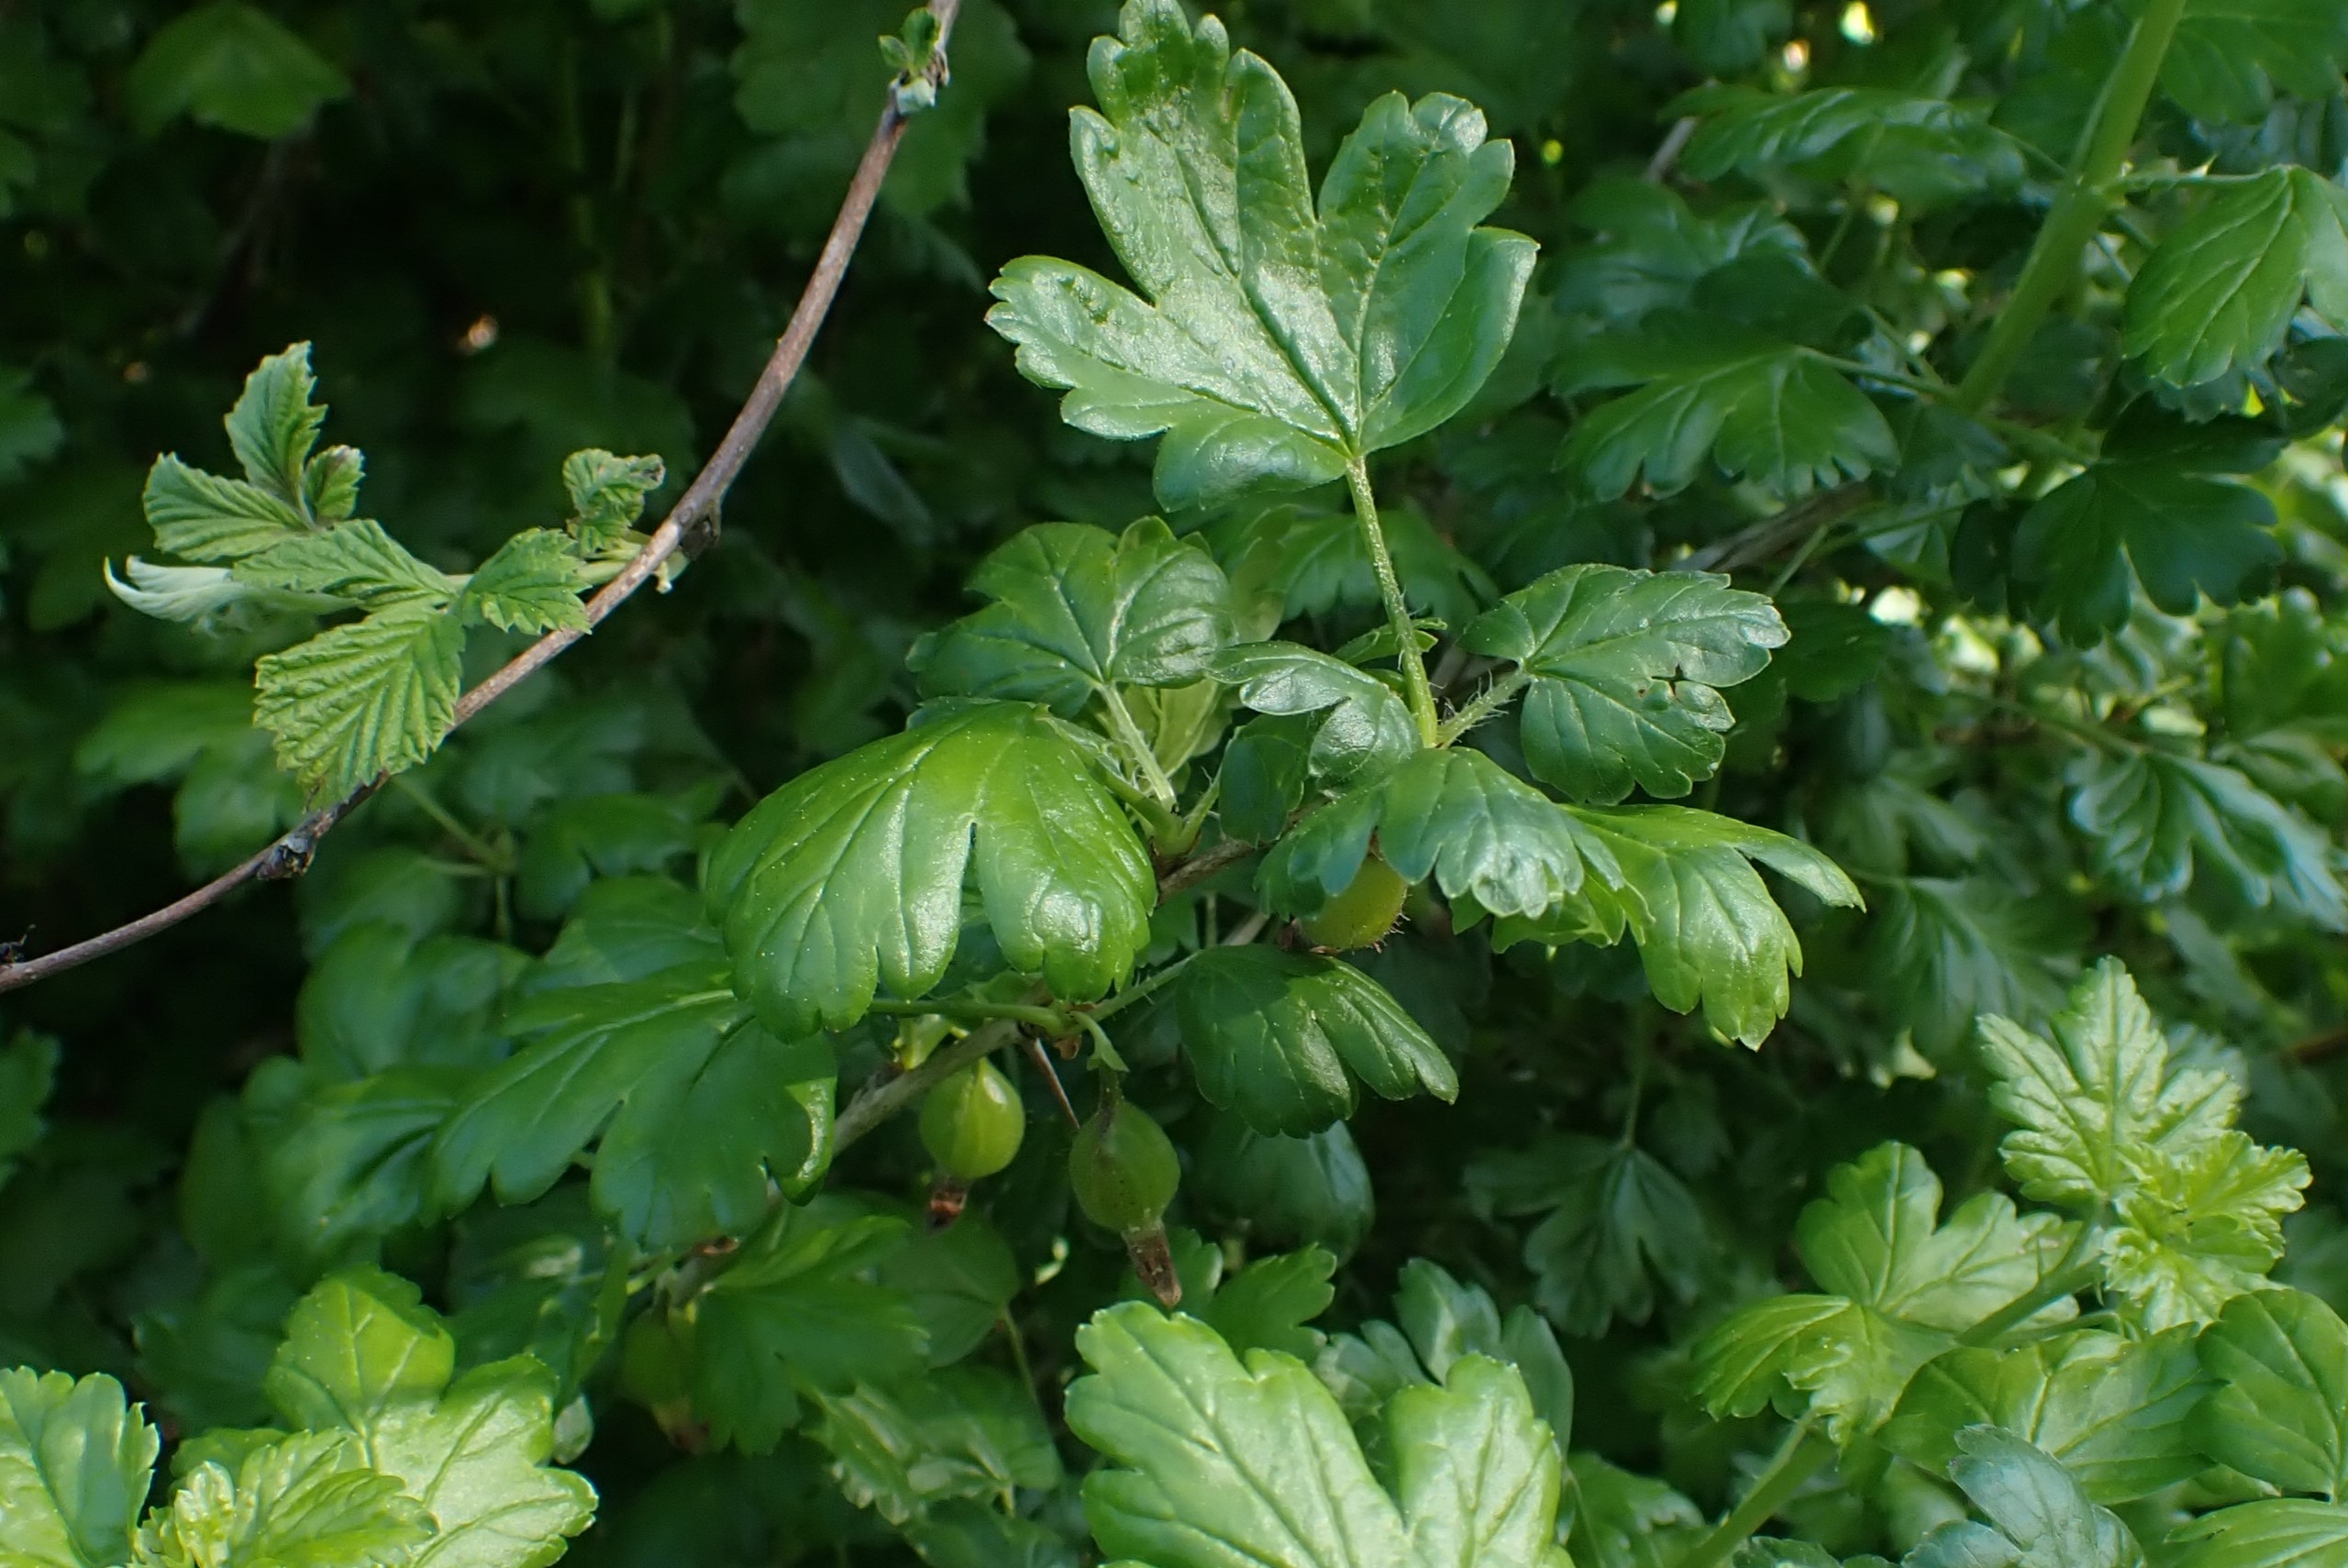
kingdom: Plantae
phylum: Tracheophyta
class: Magnoliopsida
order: Saxifragales
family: Grossulariaceae
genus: Ribes
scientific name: Ribes uva-crispa
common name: Stikkelsbær
